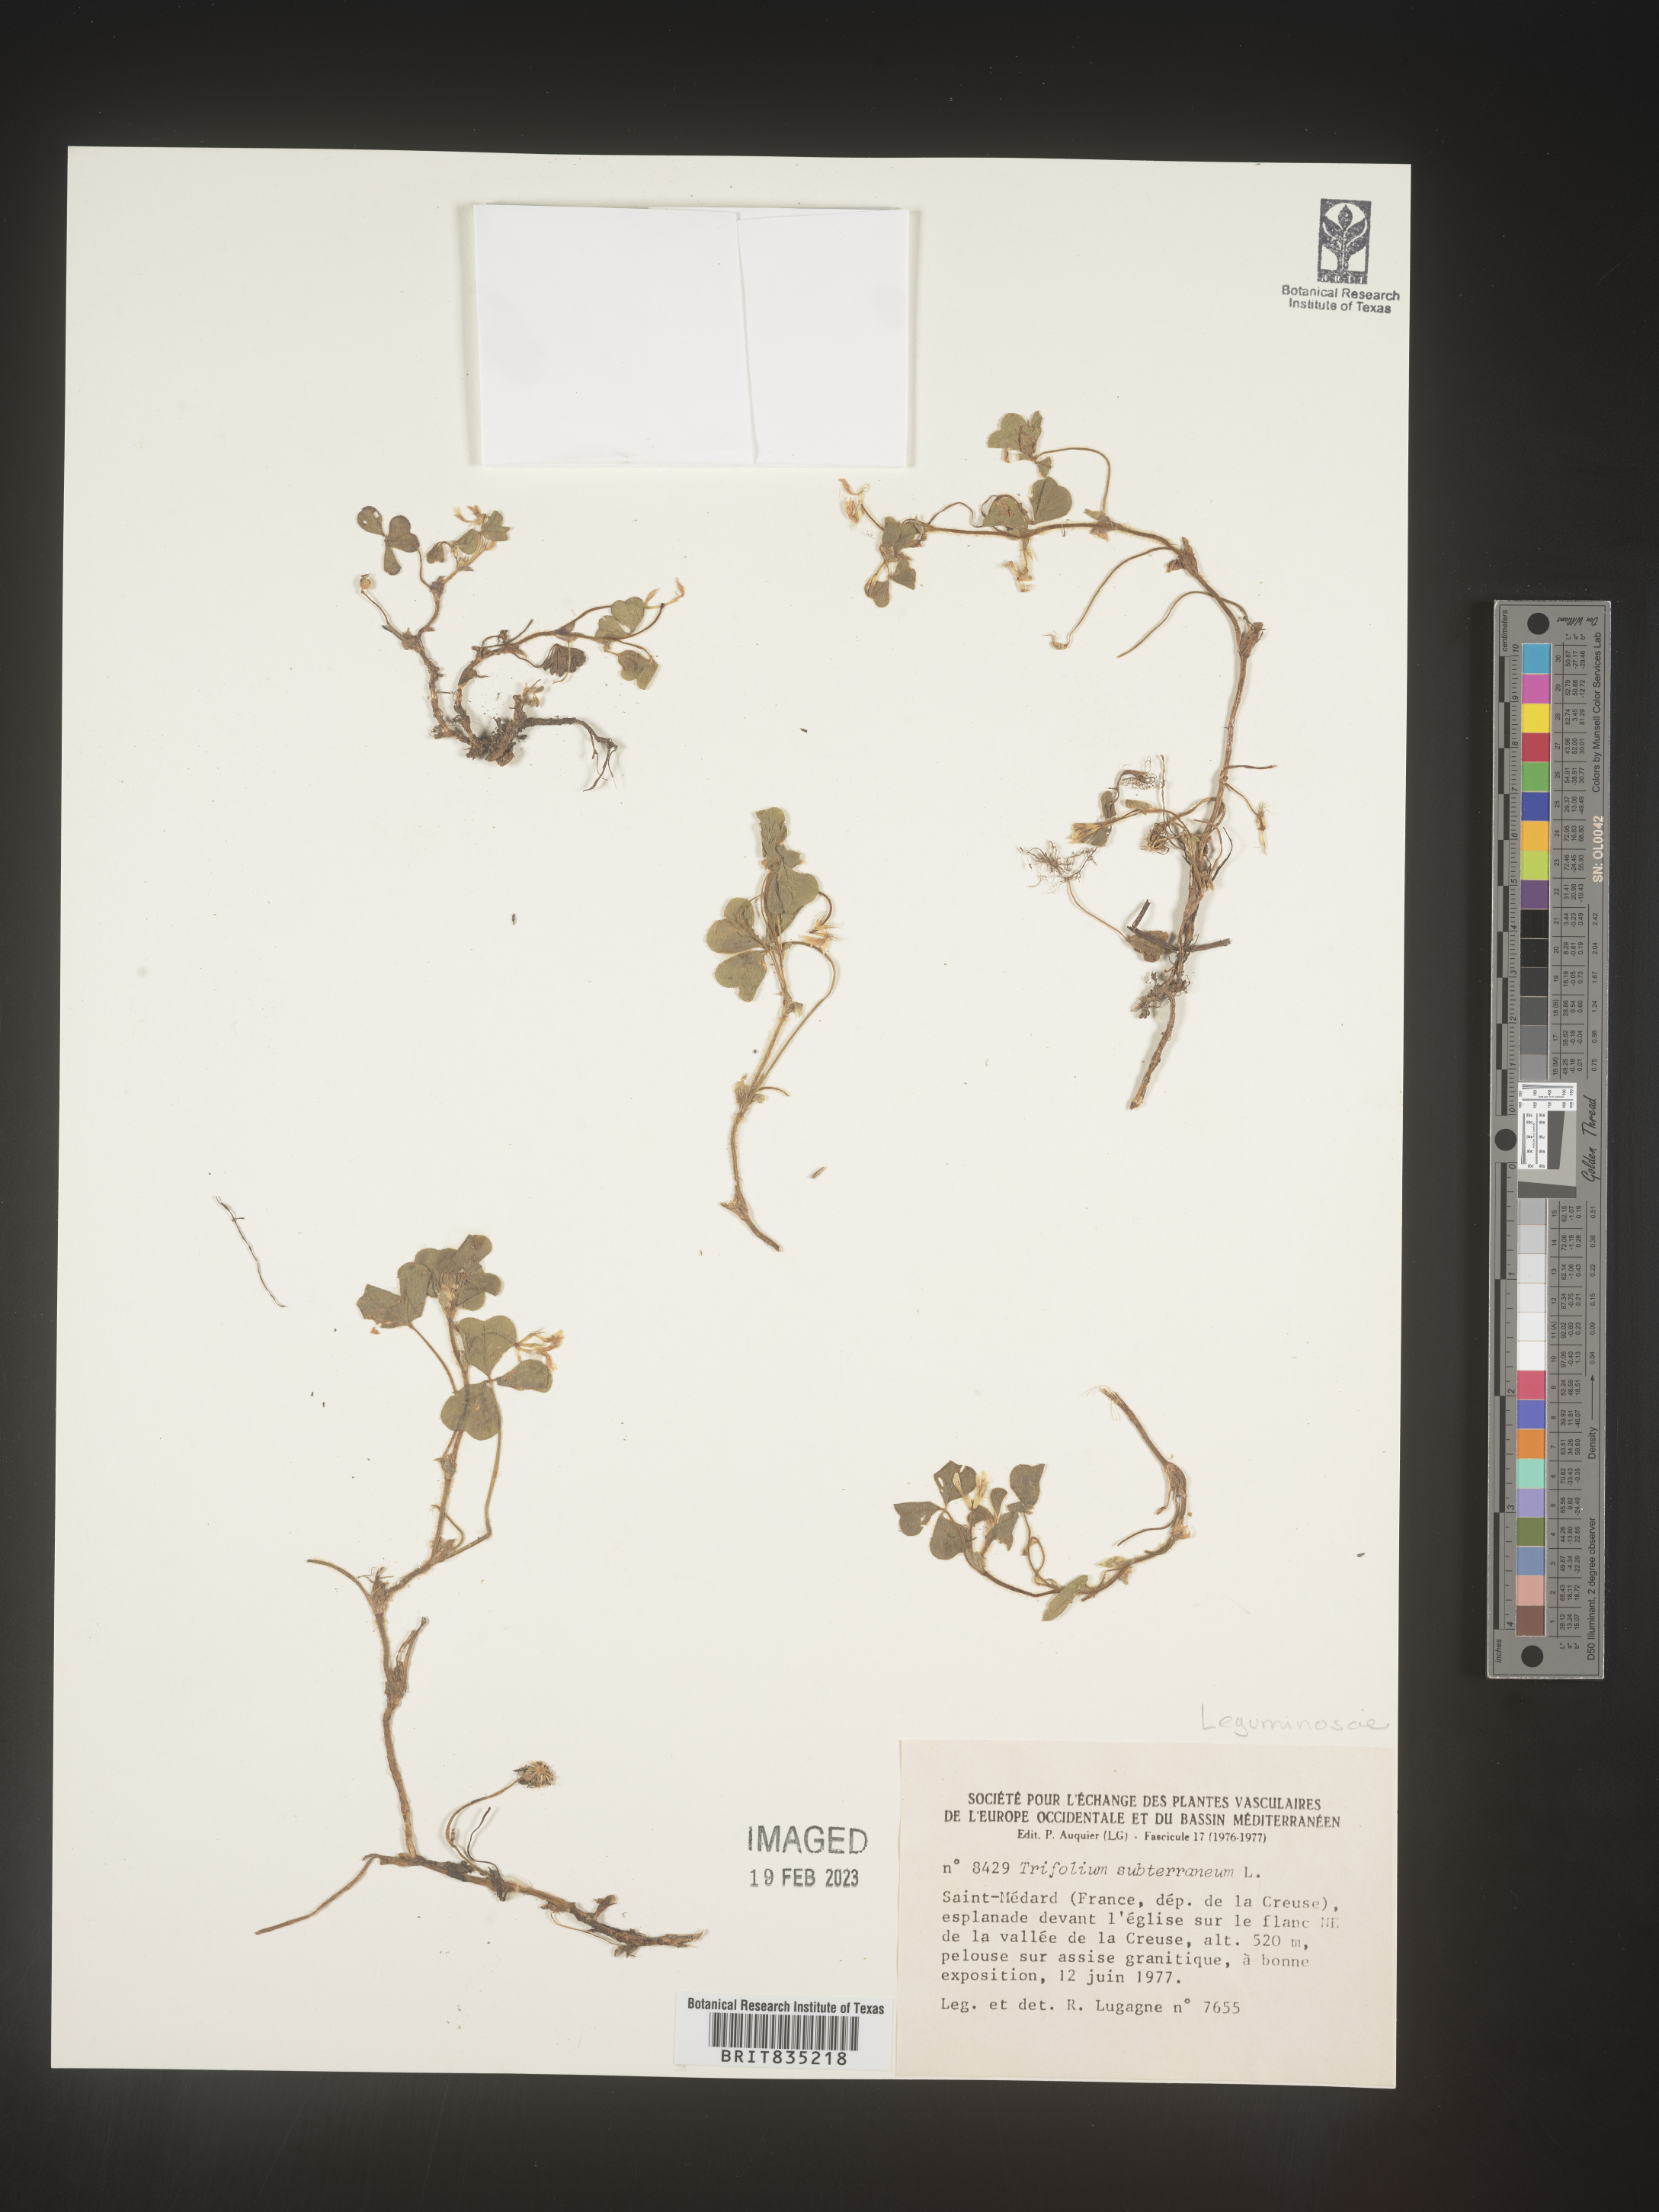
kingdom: Plantae
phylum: Tracheophyta
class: Magnoliopsida
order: Fabales
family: Fabaceae
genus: Trifolium
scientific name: Trifolium
